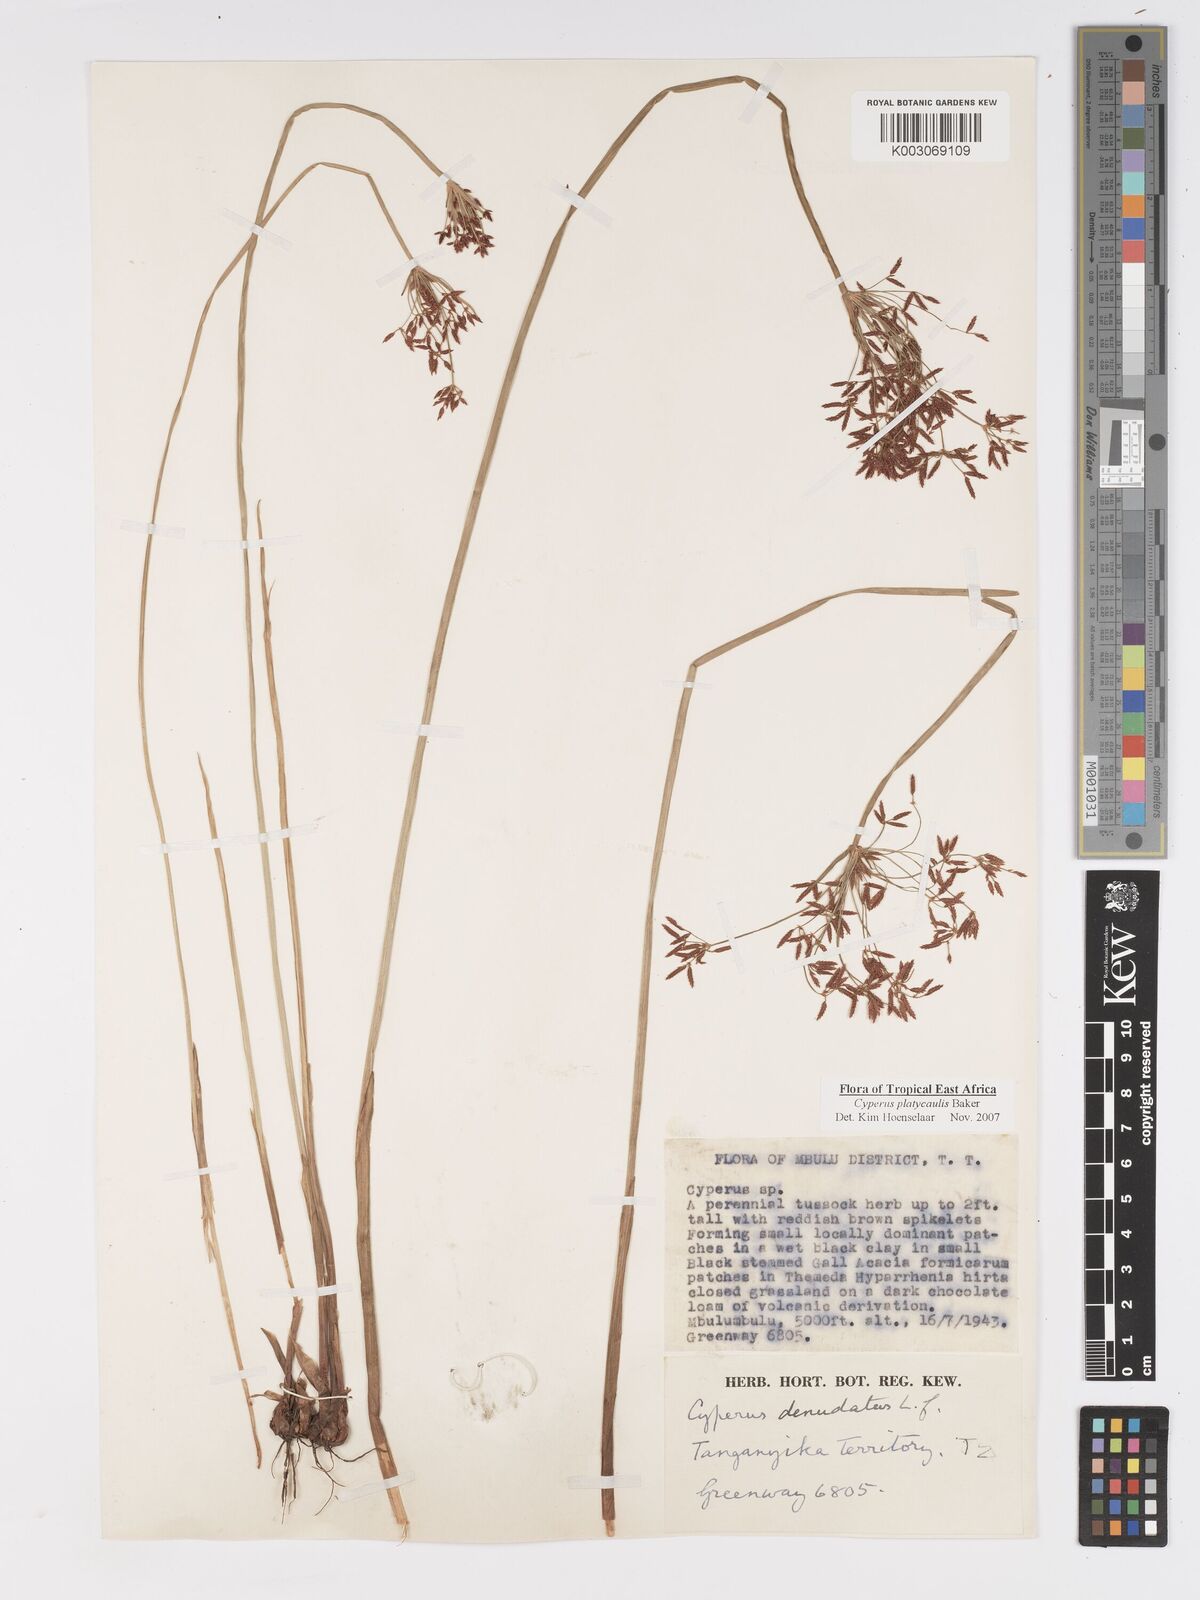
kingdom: Plantae
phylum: Tracheophyta
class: Liliopsida
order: Poales
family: Cyperaceae
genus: Cyperus
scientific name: Cyperus platycaulis
